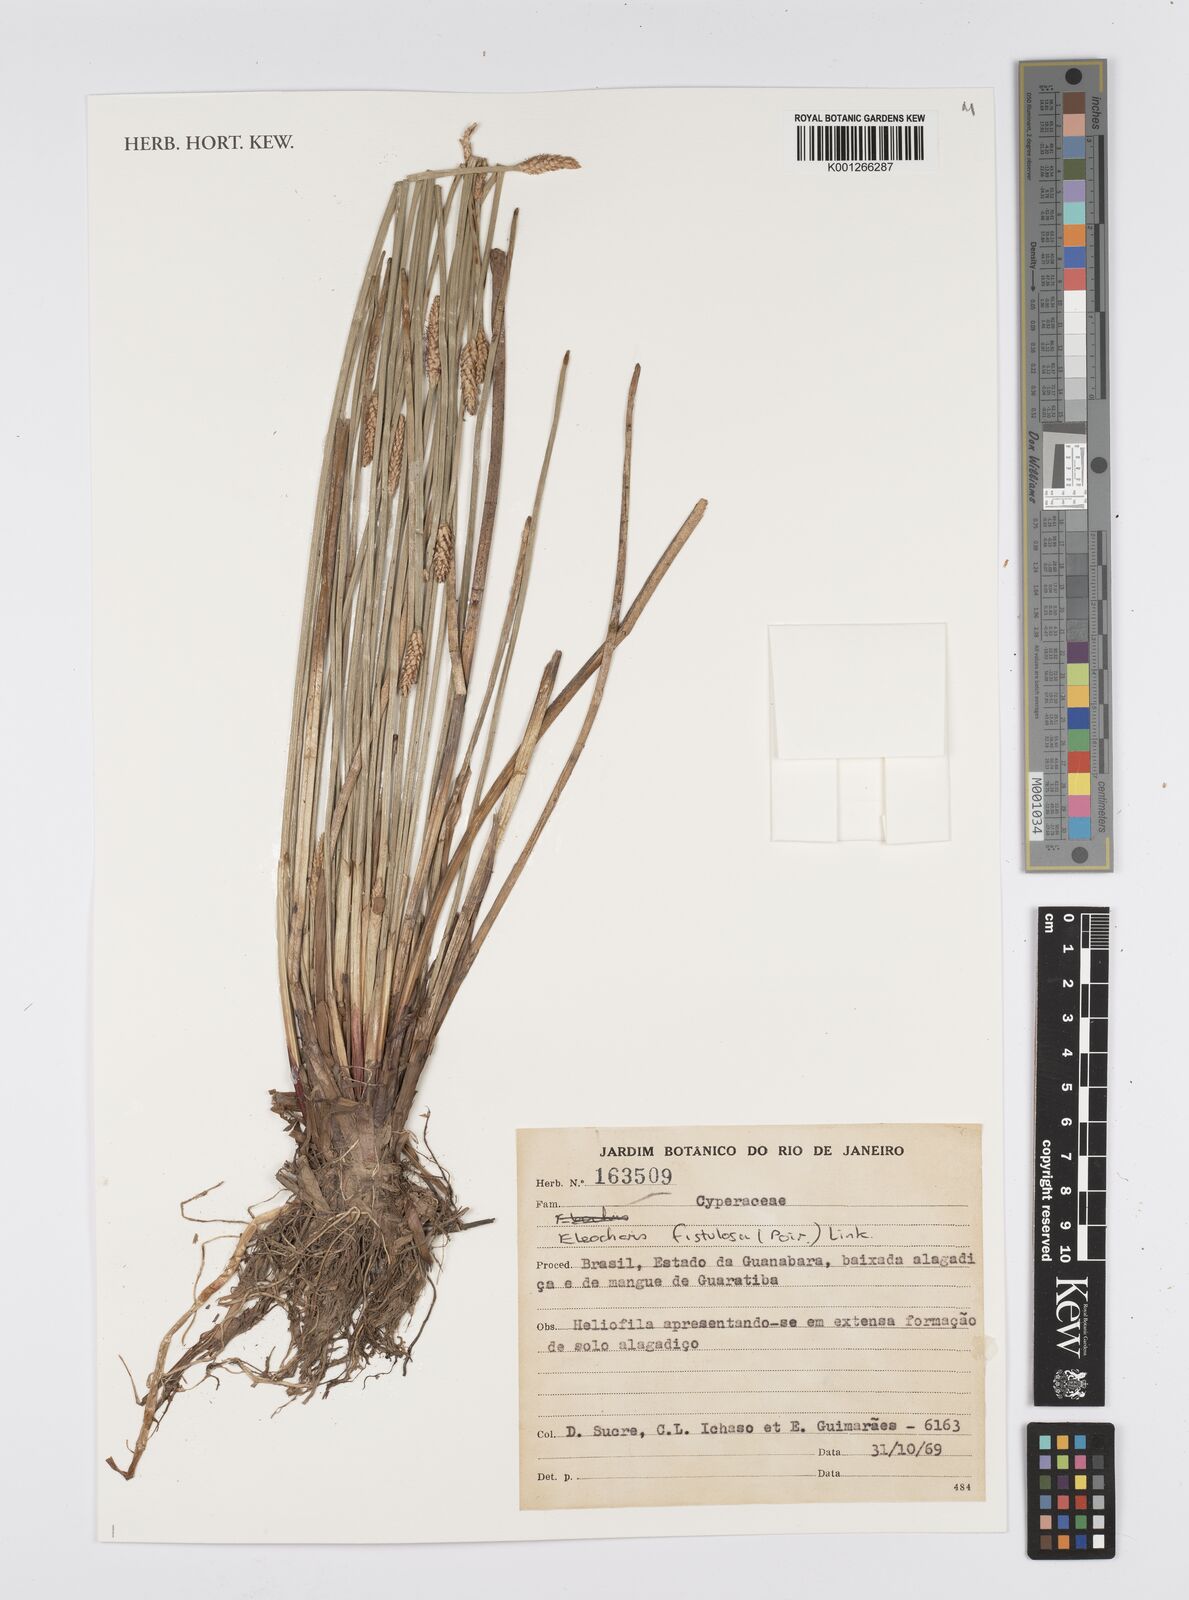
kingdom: Plantae
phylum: Tracheophyta
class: Liliopsida
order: Poales
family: Cyperaceae
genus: Eleocharis
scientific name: Eleocharis acutangula
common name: Acute spikerush
